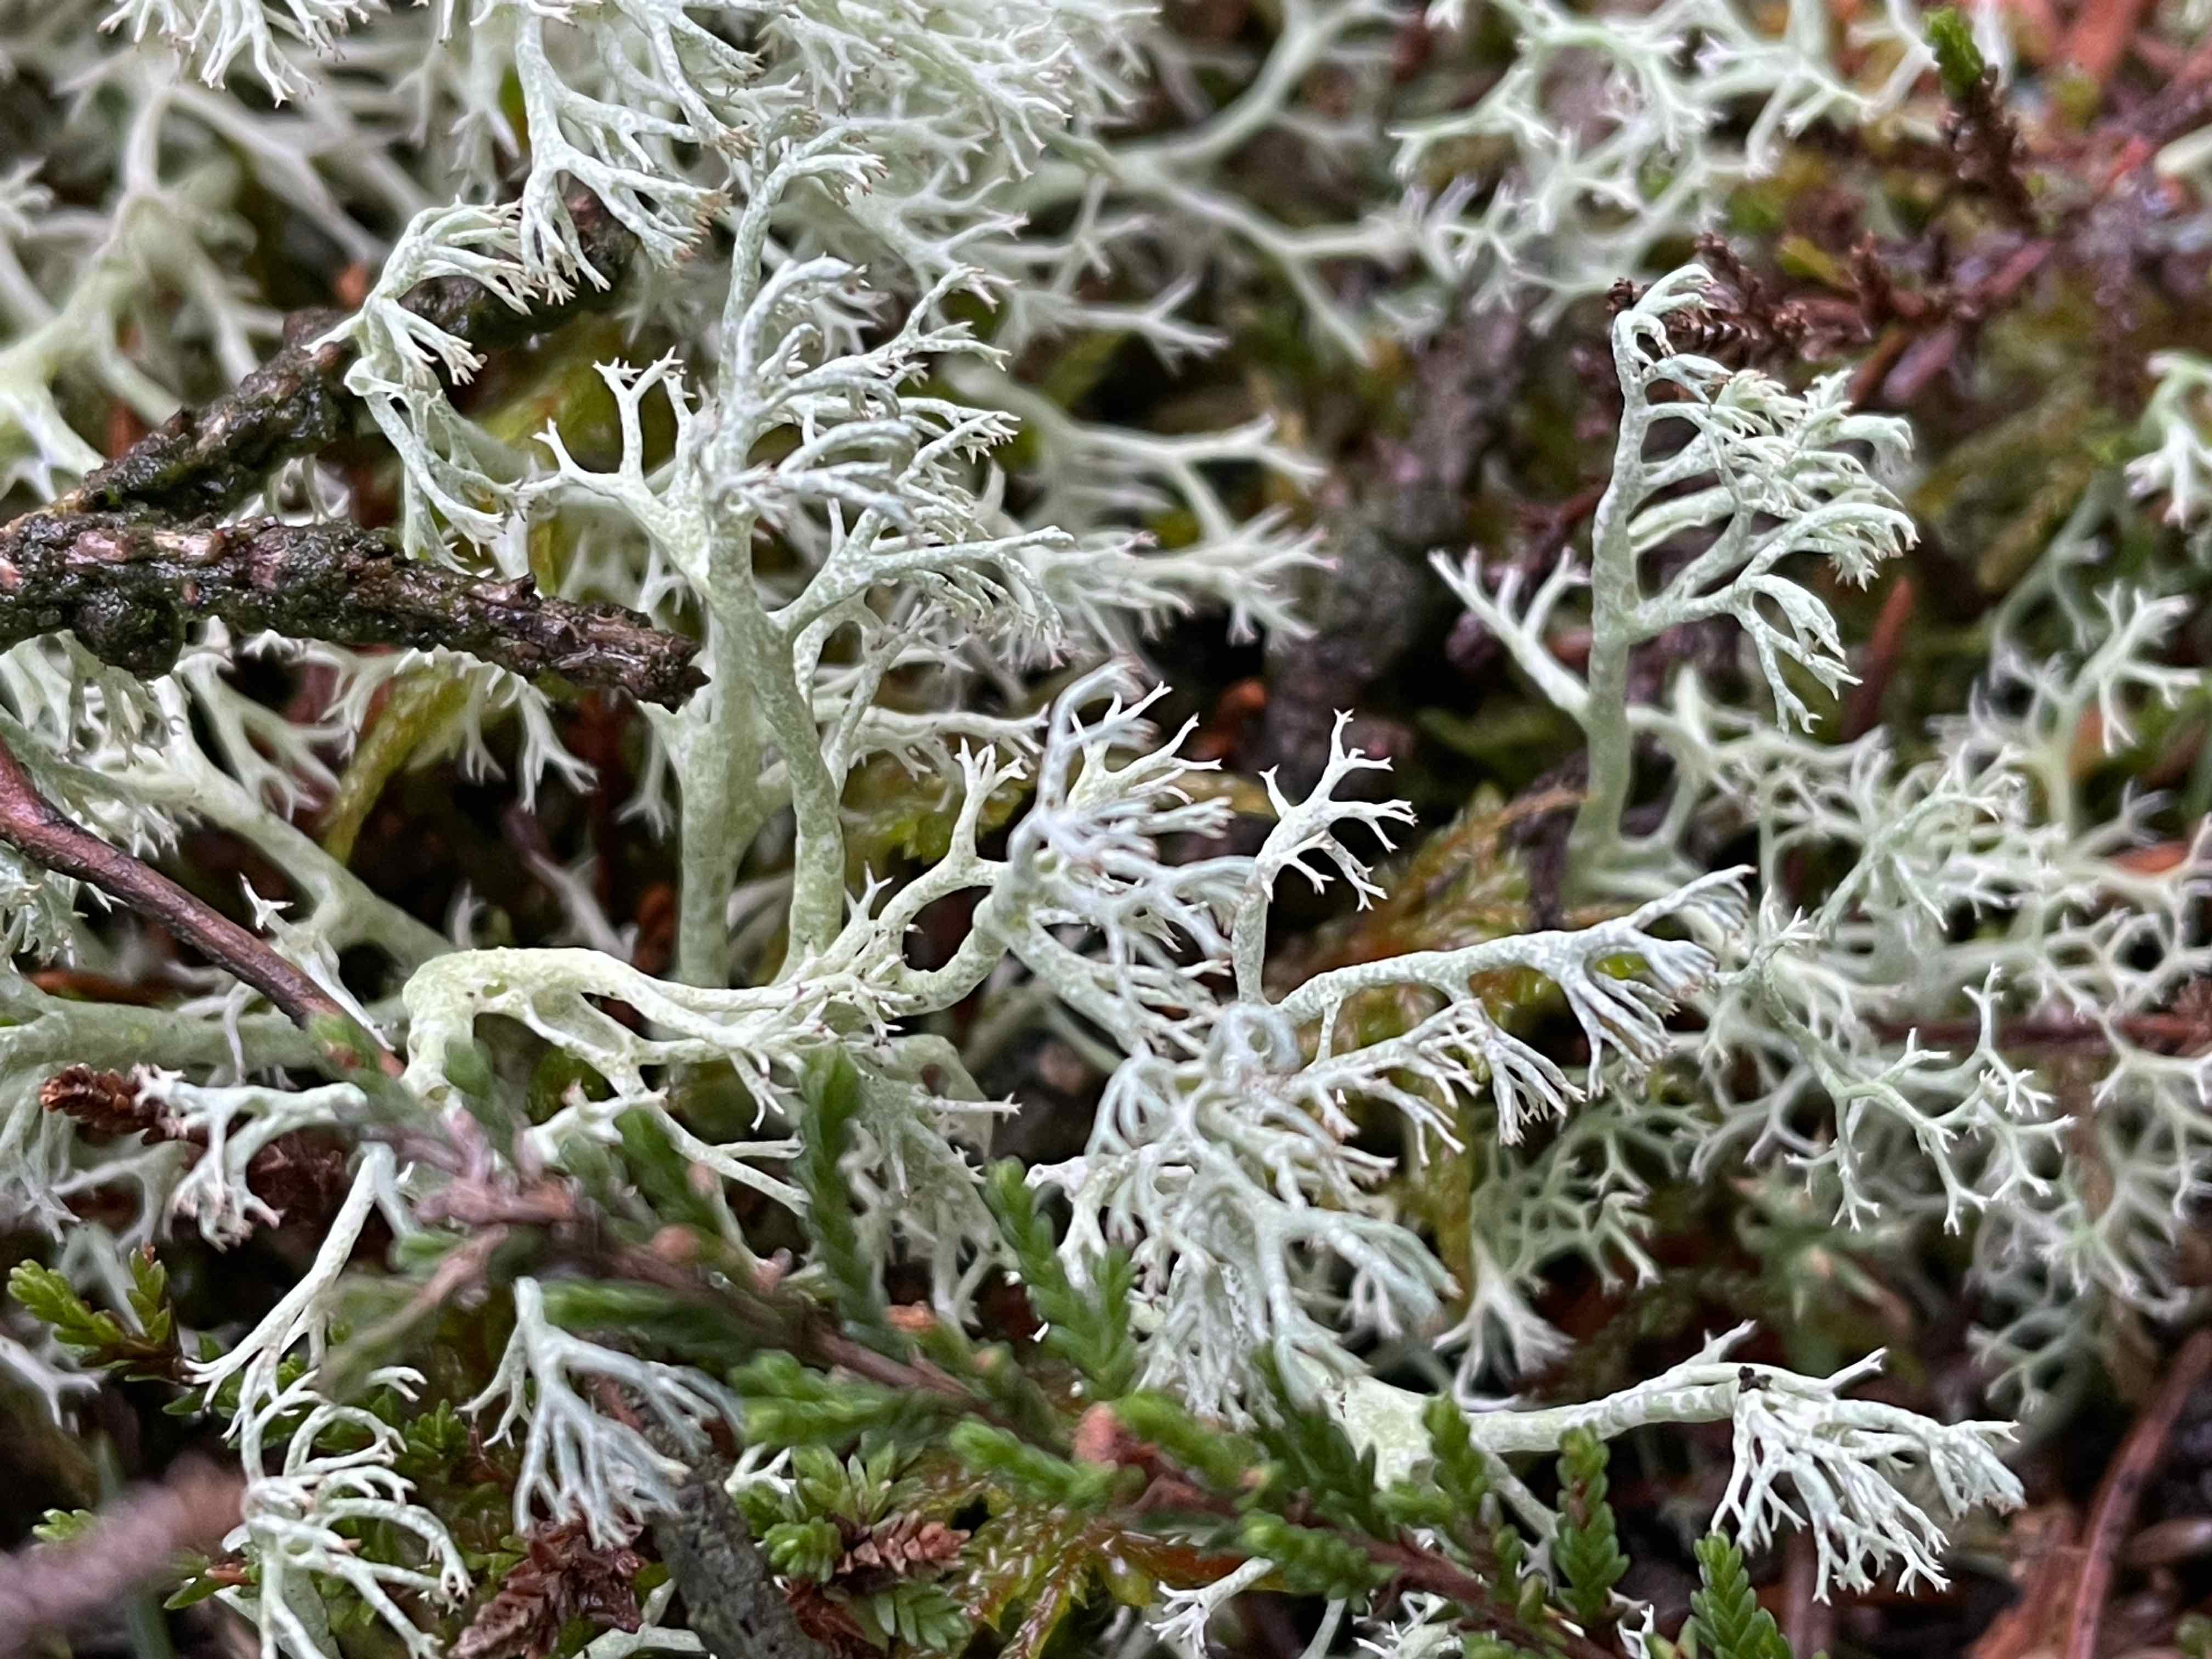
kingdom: Fungi
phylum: Ascomycota
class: Lecanoromycetes
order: Lecanorales
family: Cladoniaceae
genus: Cladonia
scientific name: Cladonia ciliata
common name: spinkel rensdyrlav
